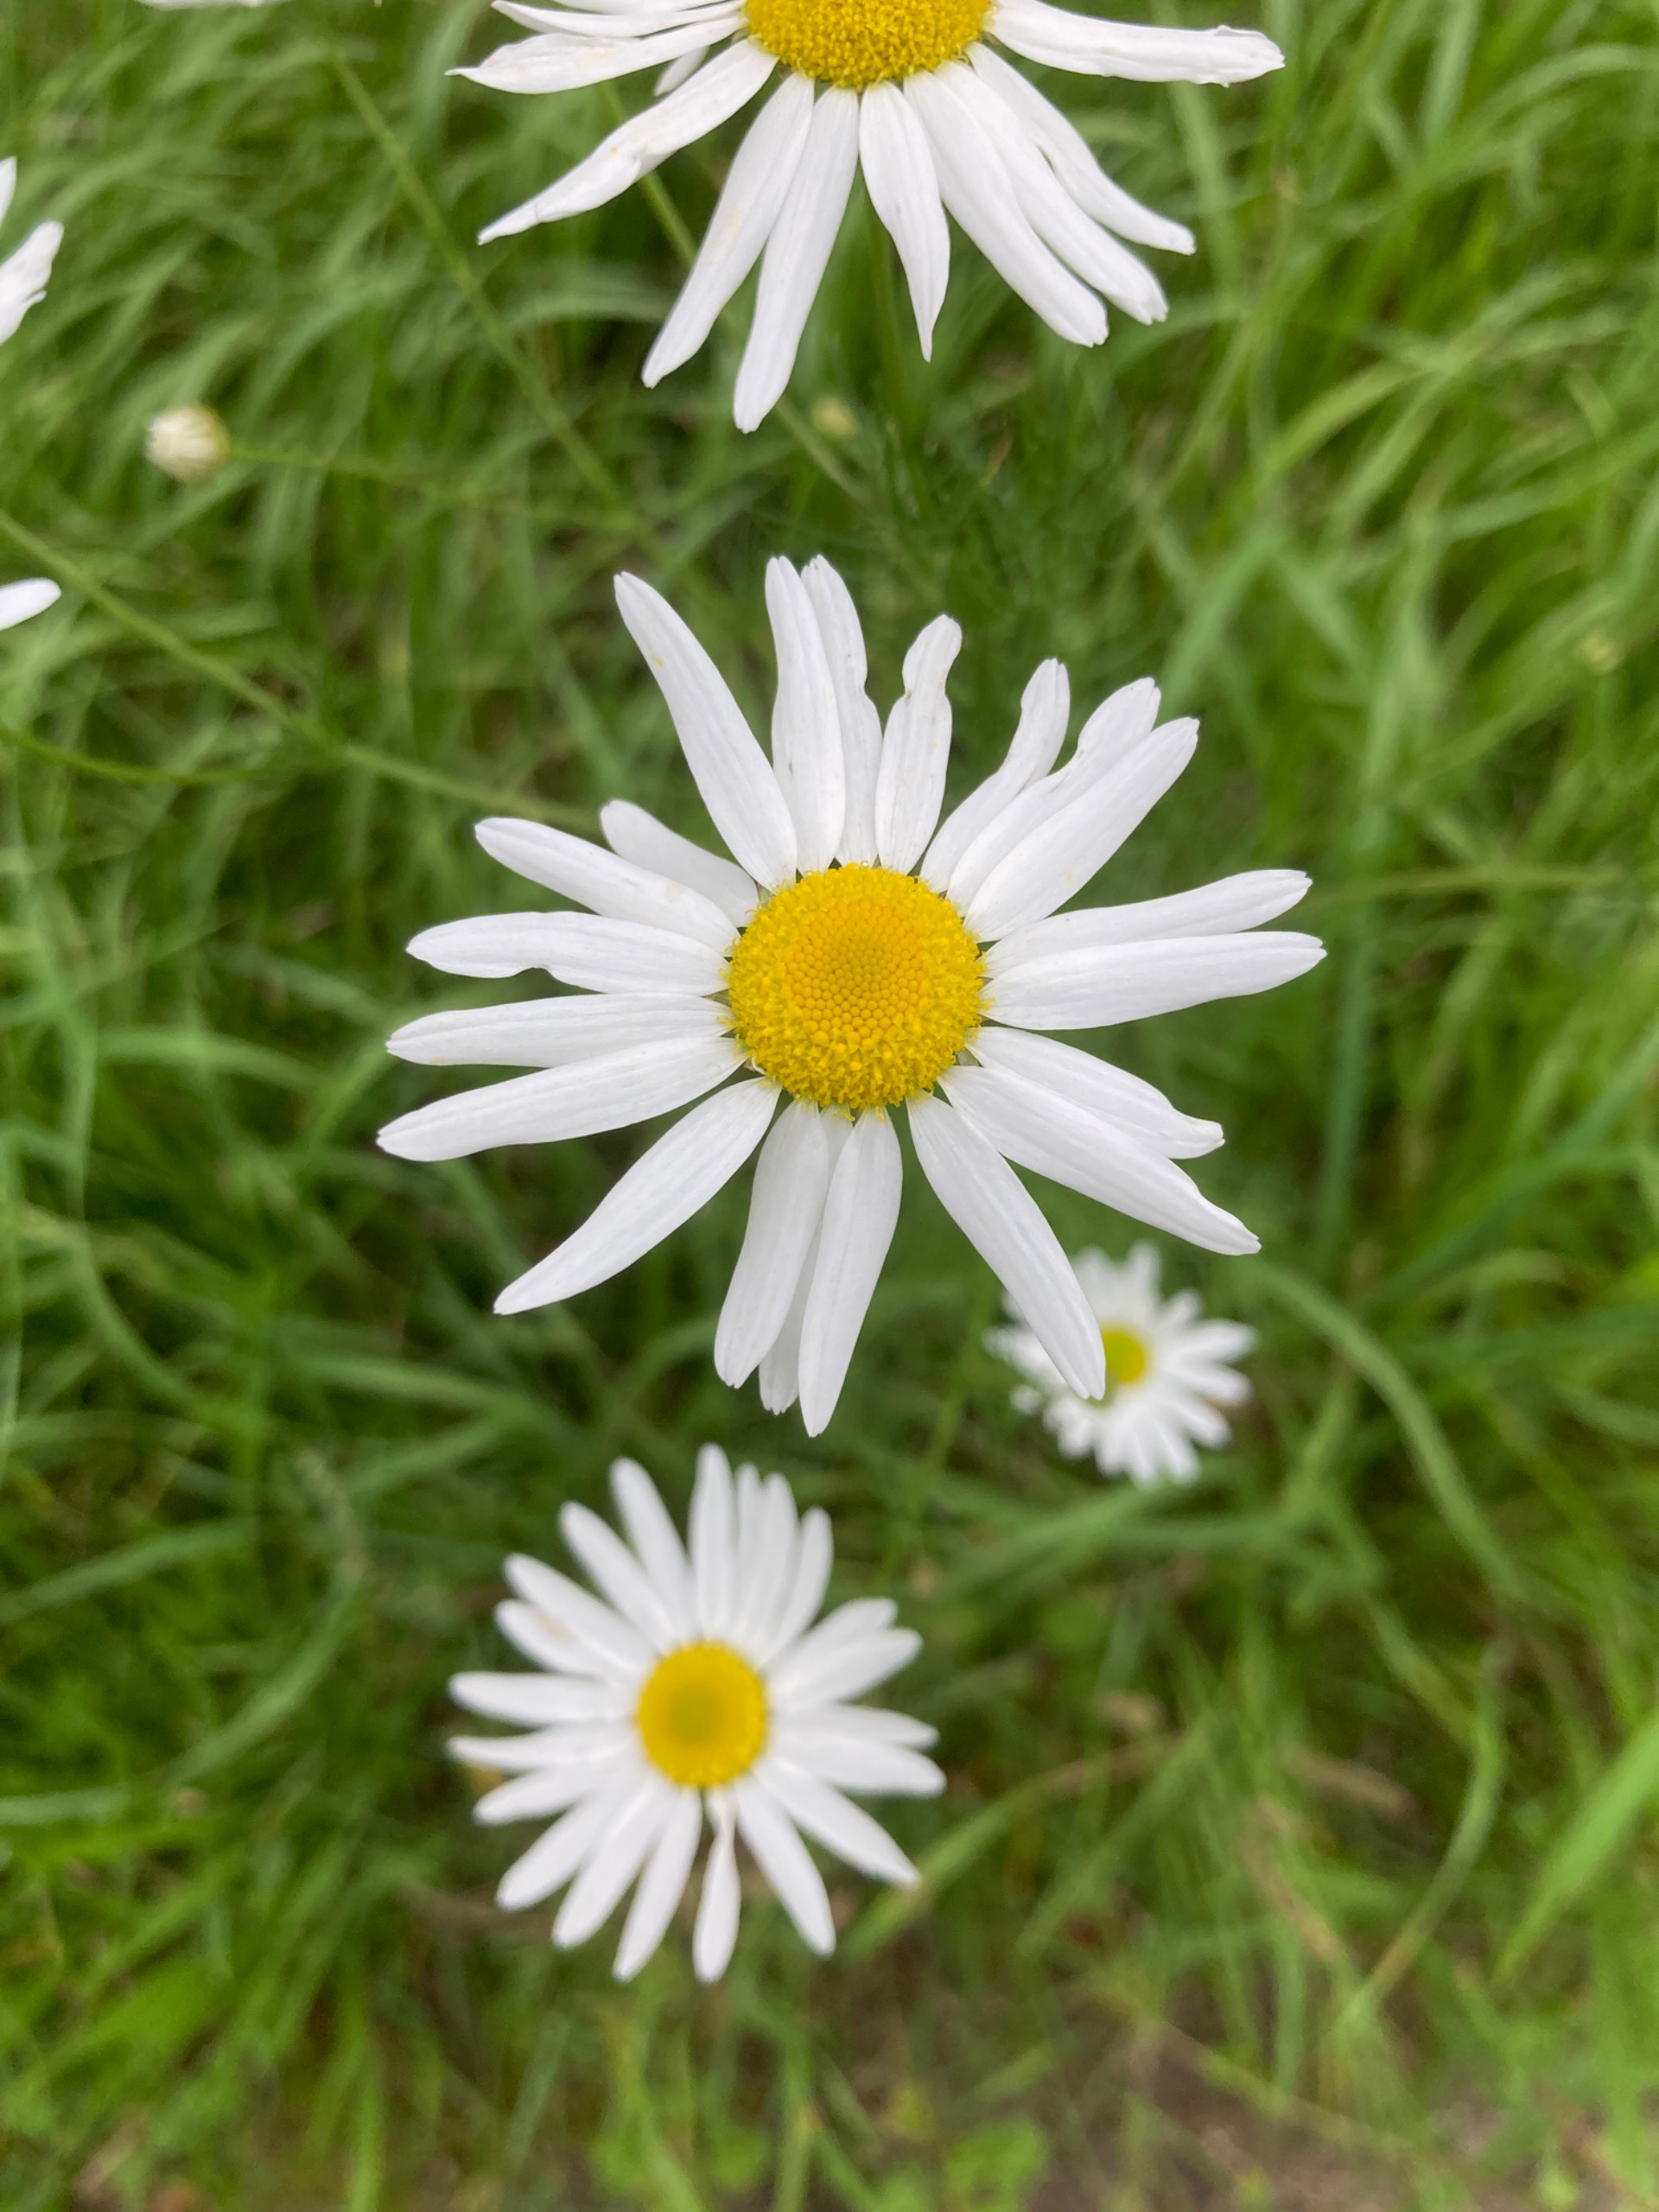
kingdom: Plantae
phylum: Tracheophyta
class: Magnoliopsida
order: Asterales
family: Asteraceae
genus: Tripleurospermum
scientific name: Tripleurospermum inodorum
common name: Lugtløs kamille
